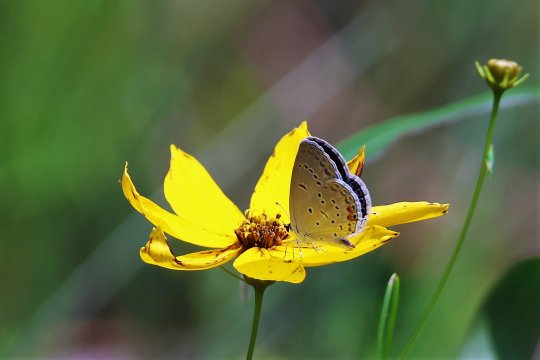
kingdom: Animalia
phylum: Arthropoda
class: Insecta
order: Lepidoptera
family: Lycaenidae
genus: Elkalyce
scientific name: Elkalyce comyntas
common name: Eastern Tailed-Blue
